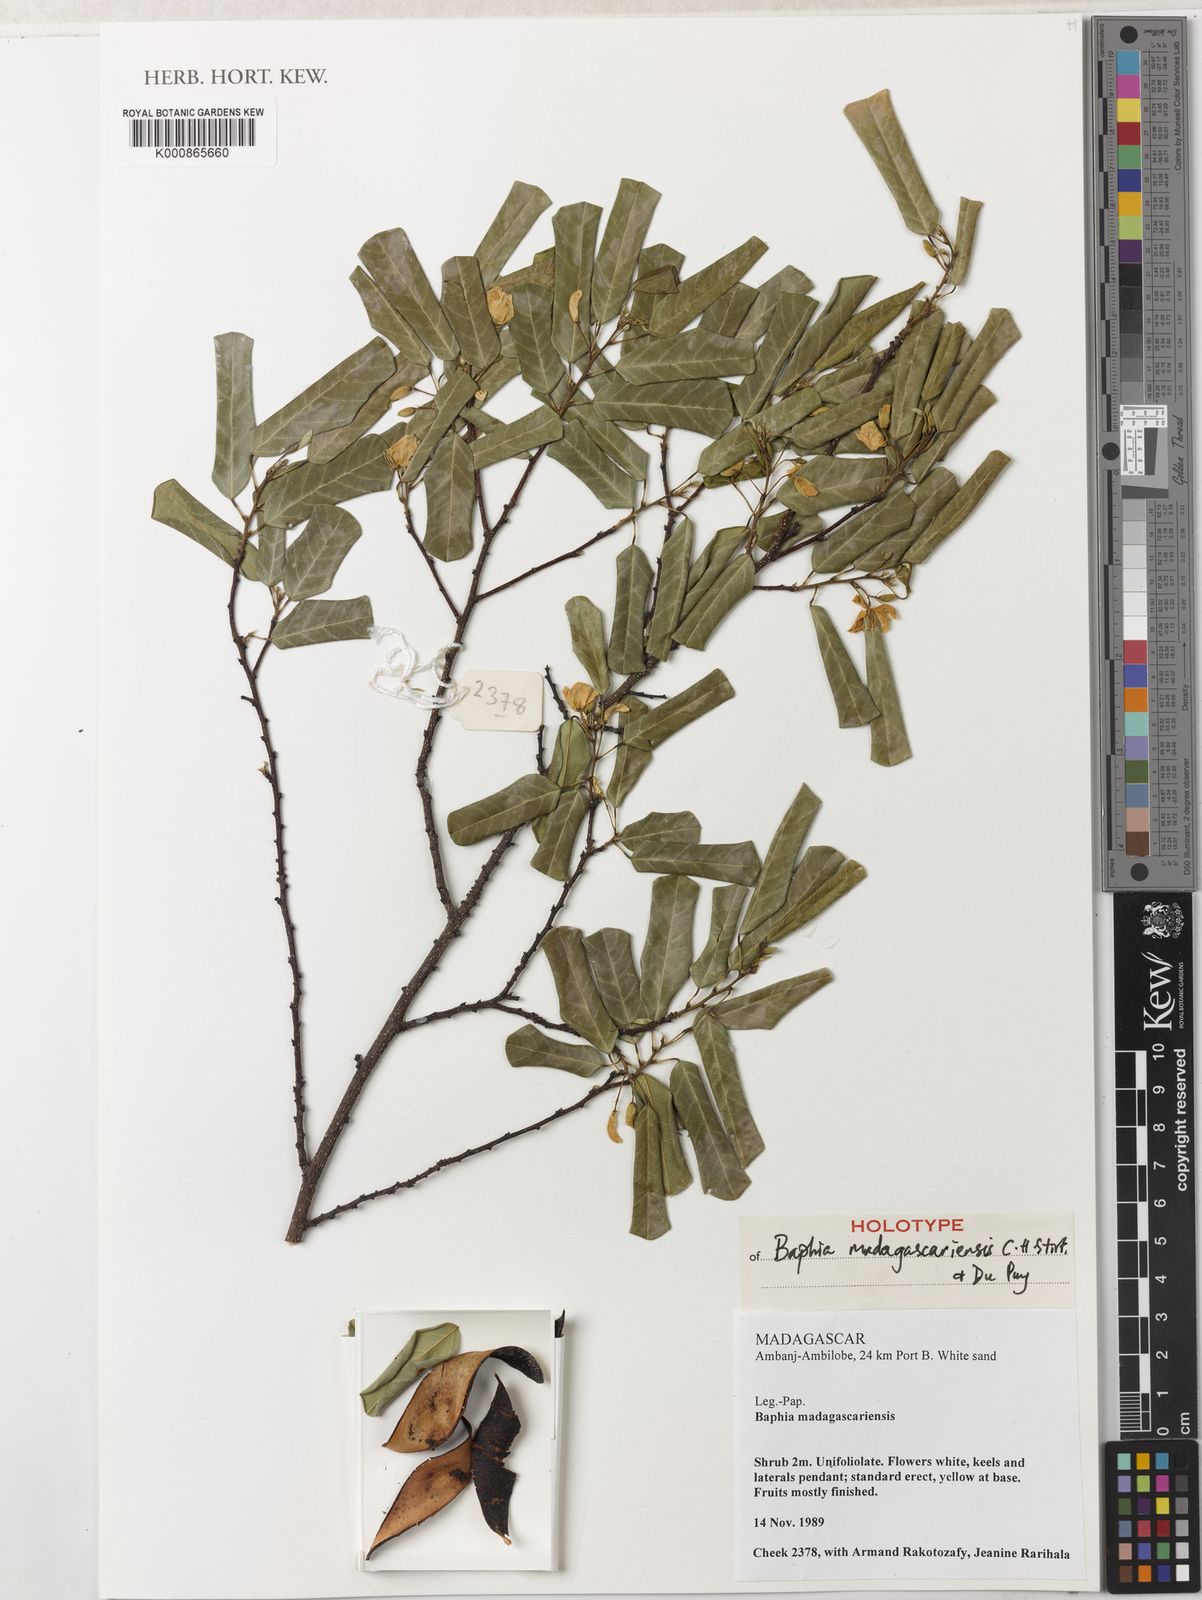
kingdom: Plantae
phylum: Tracheophyta
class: Magnoliopsida
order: Fabales
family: Fabaceae
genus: Baphia
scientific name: Baphia madagascariensis
